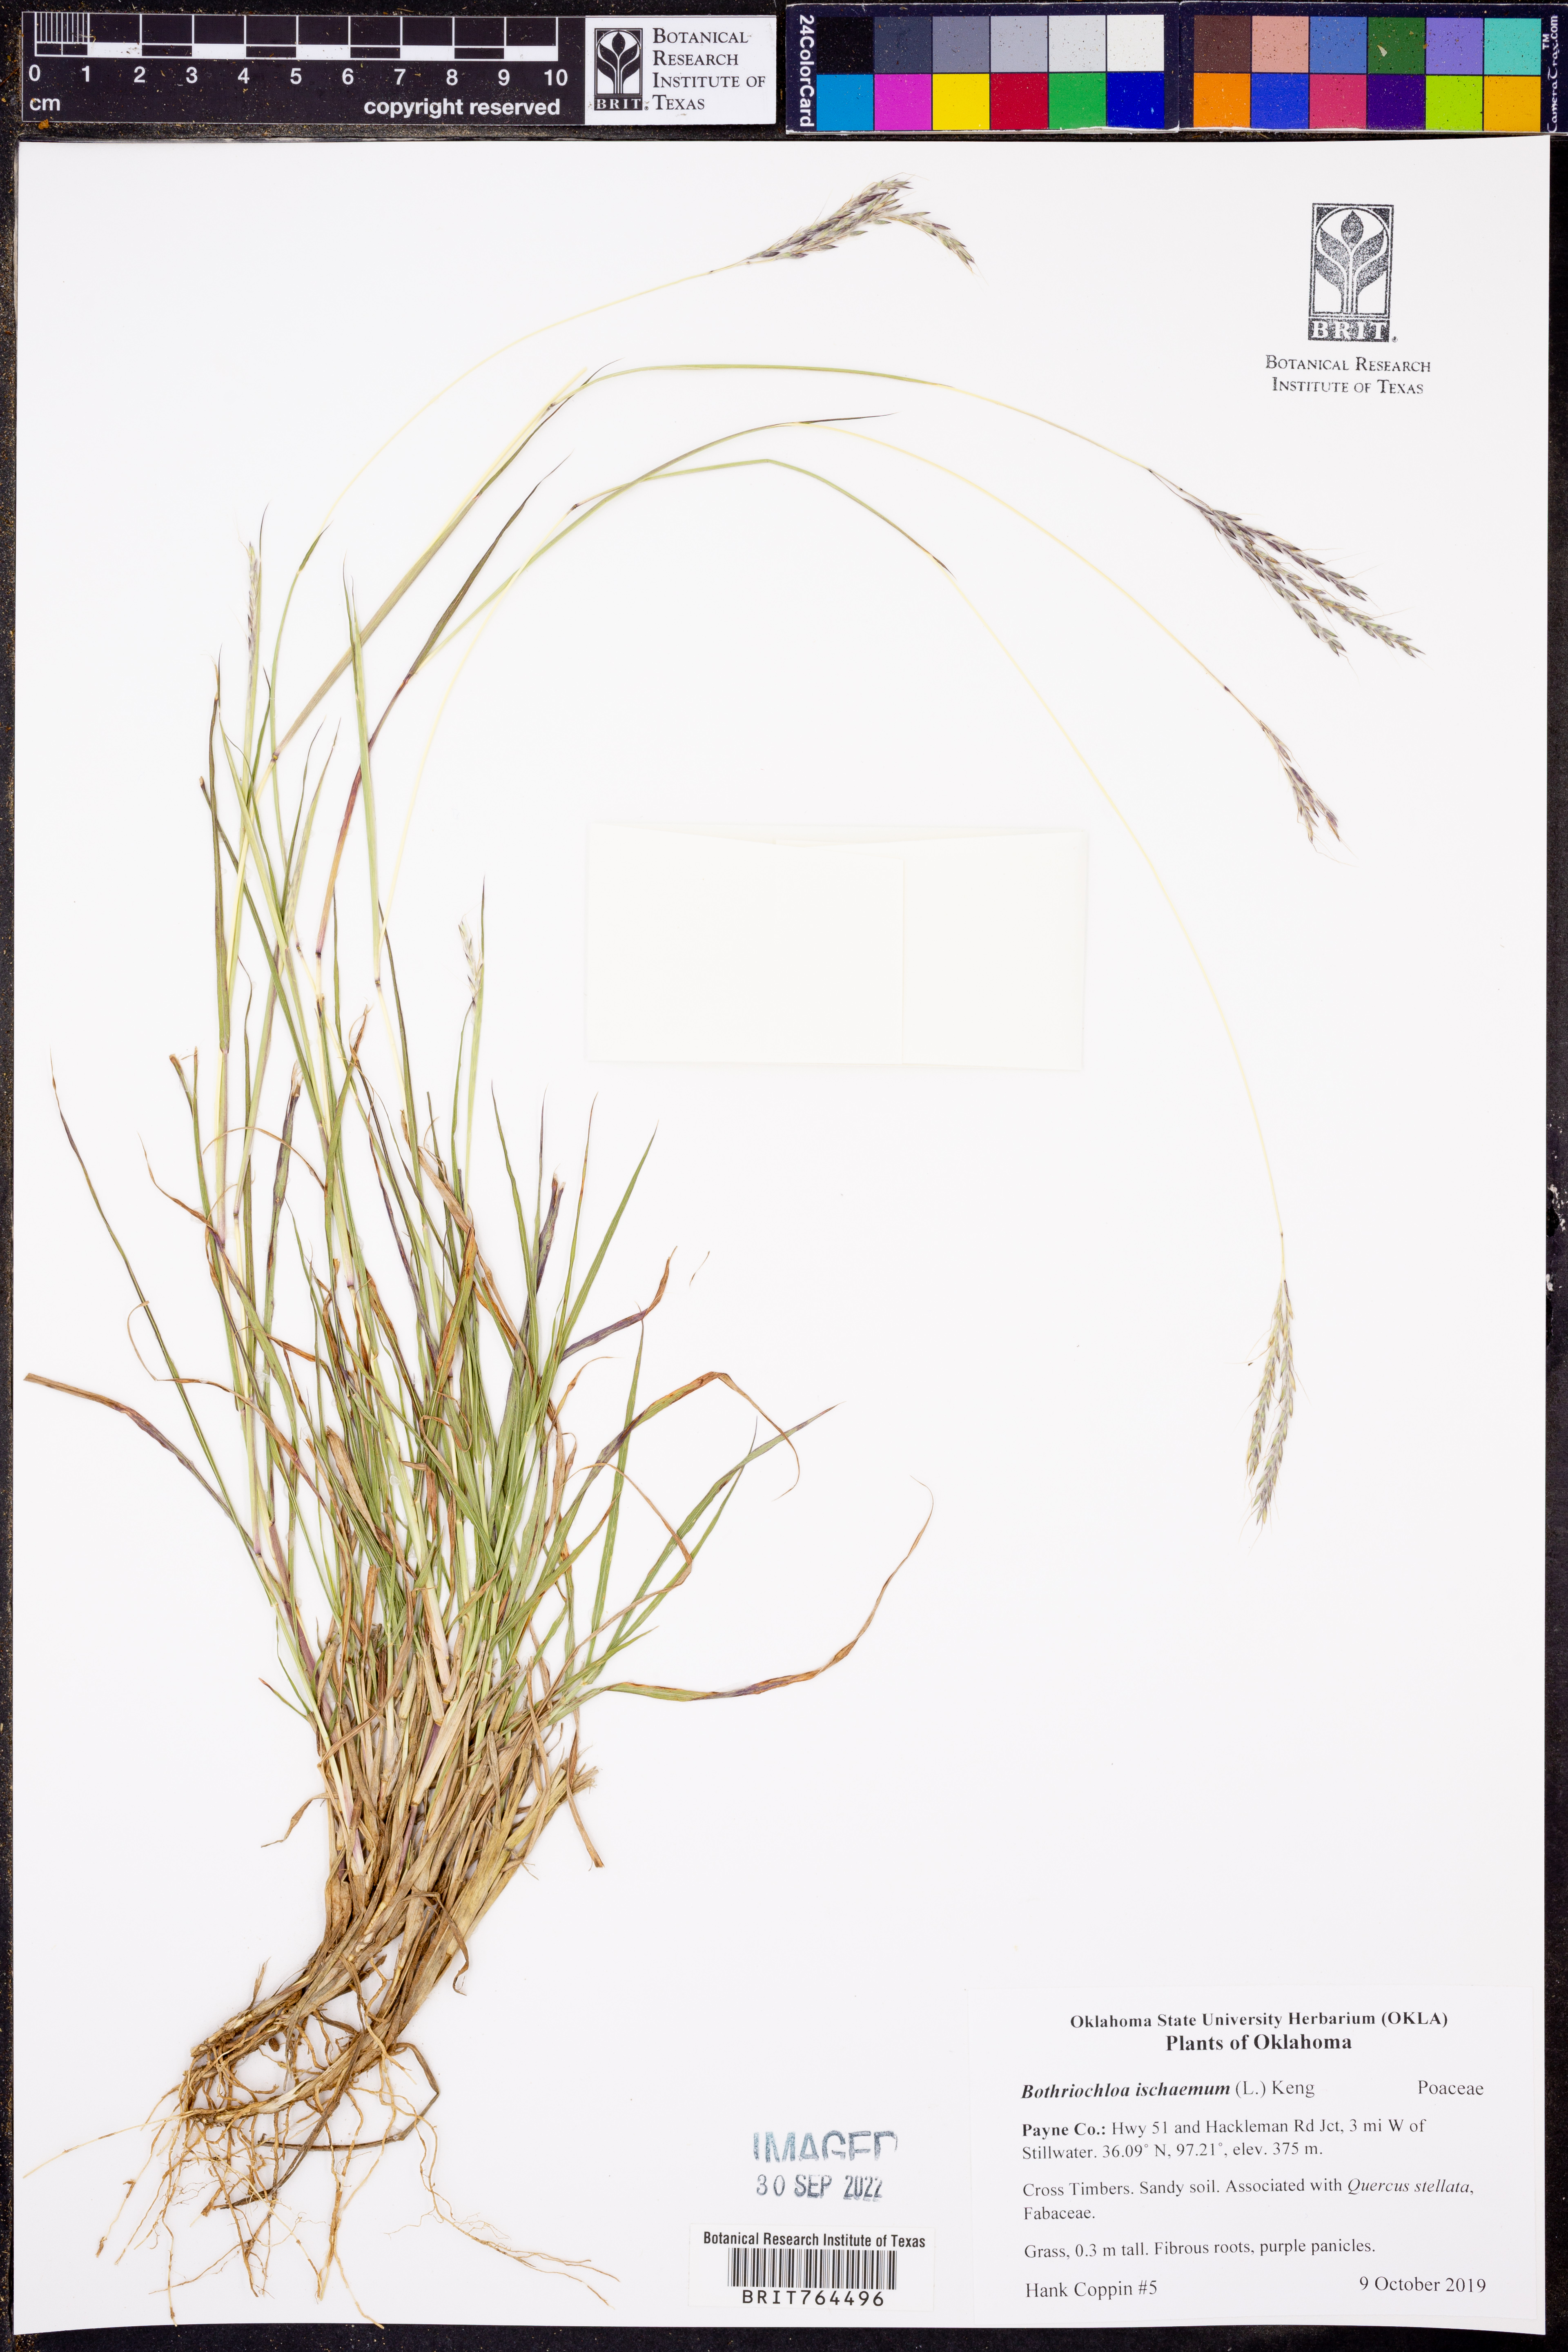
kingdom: Plantae
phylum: Tracheophyta
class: Liliopsida
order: Poales
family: Poaceae
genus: Bothriochloa
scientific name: Bothriochloa ischaemum
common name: Yellow bluestem
